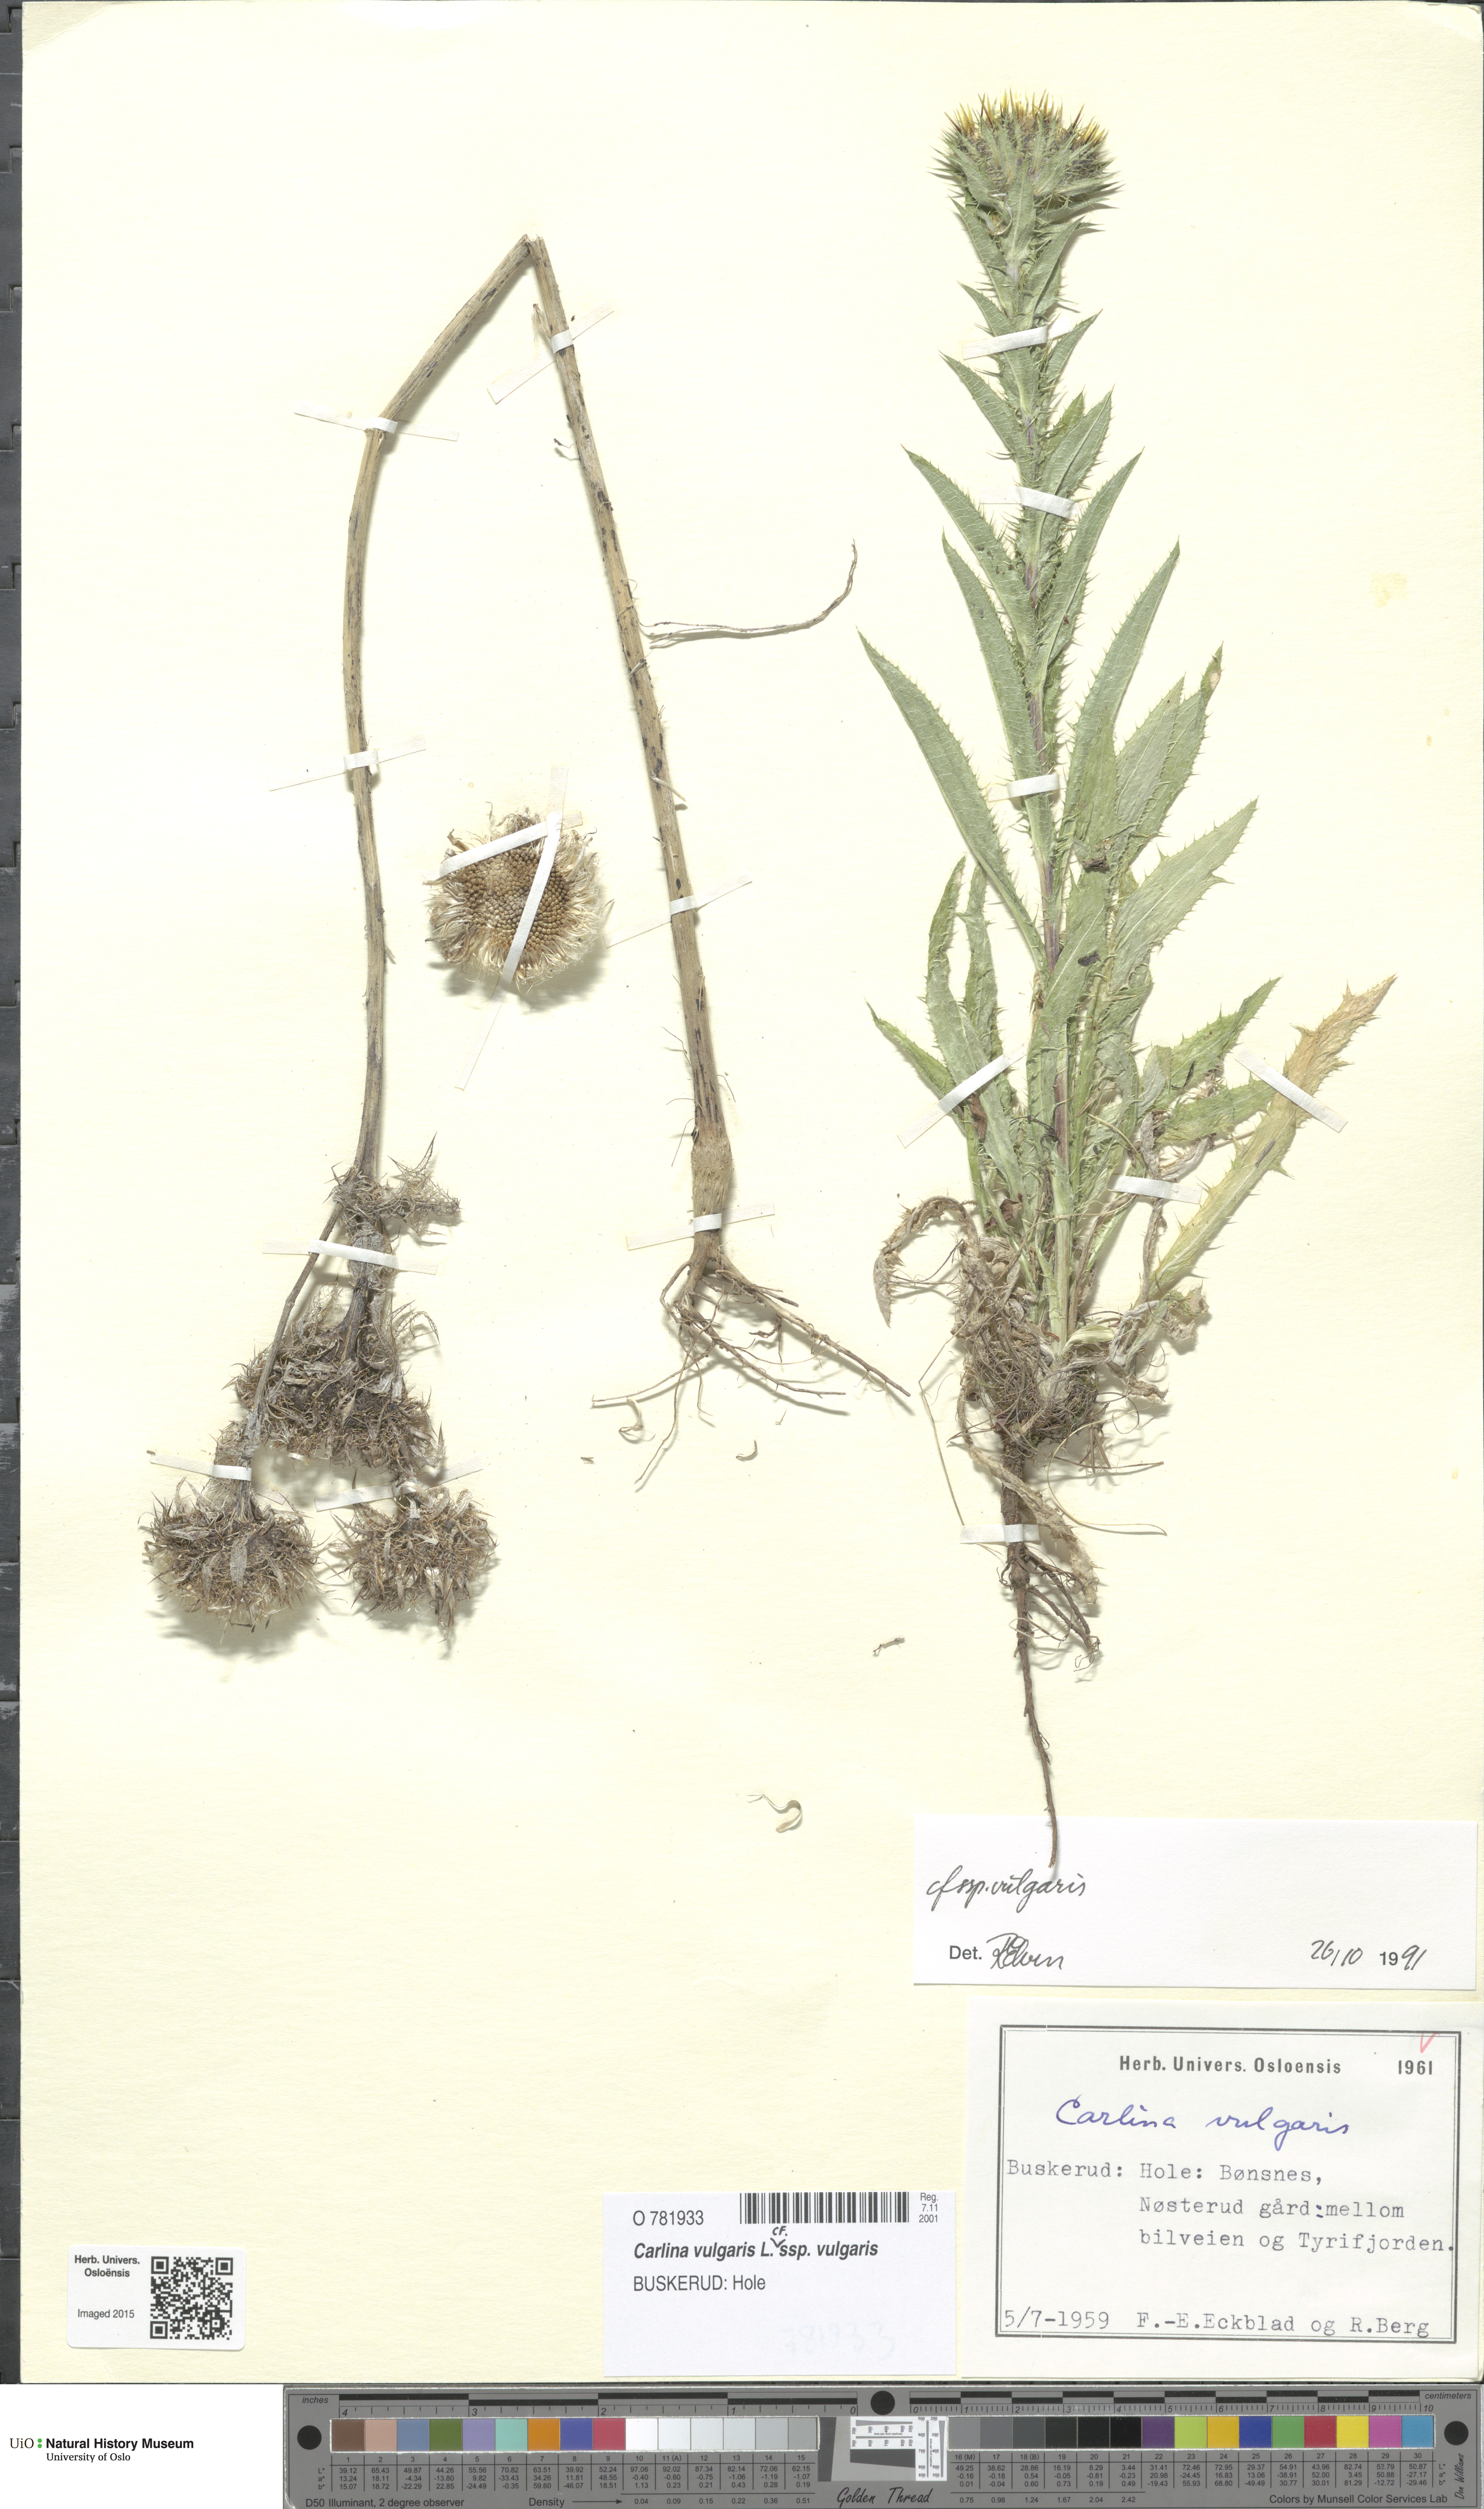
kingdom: Plantae
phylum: Tracheophyta
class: Magnoliopsida
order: Asterales
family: Asteraceae
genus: Carlina
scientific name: Carlina vulgaris
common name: Carline thistle
